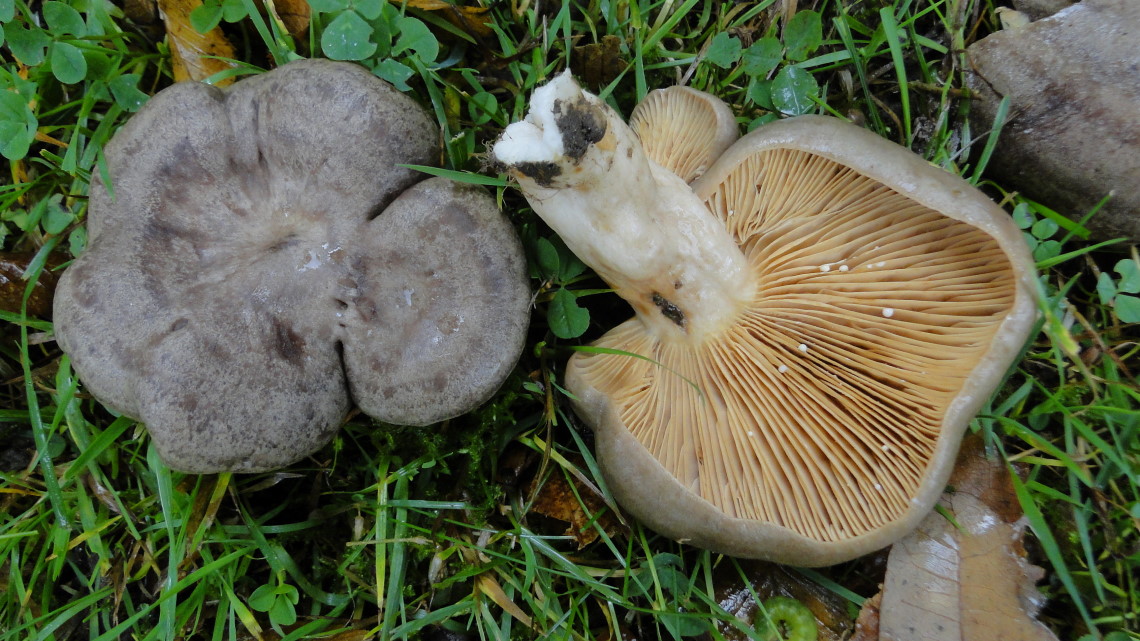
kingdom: Fungi
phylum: Basidiomycota
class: Agaricomycetes
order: Russulales
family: Russulaceae
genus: Lactarius
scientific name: Lactarius circellatus
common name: avnbøg-mælkehat
